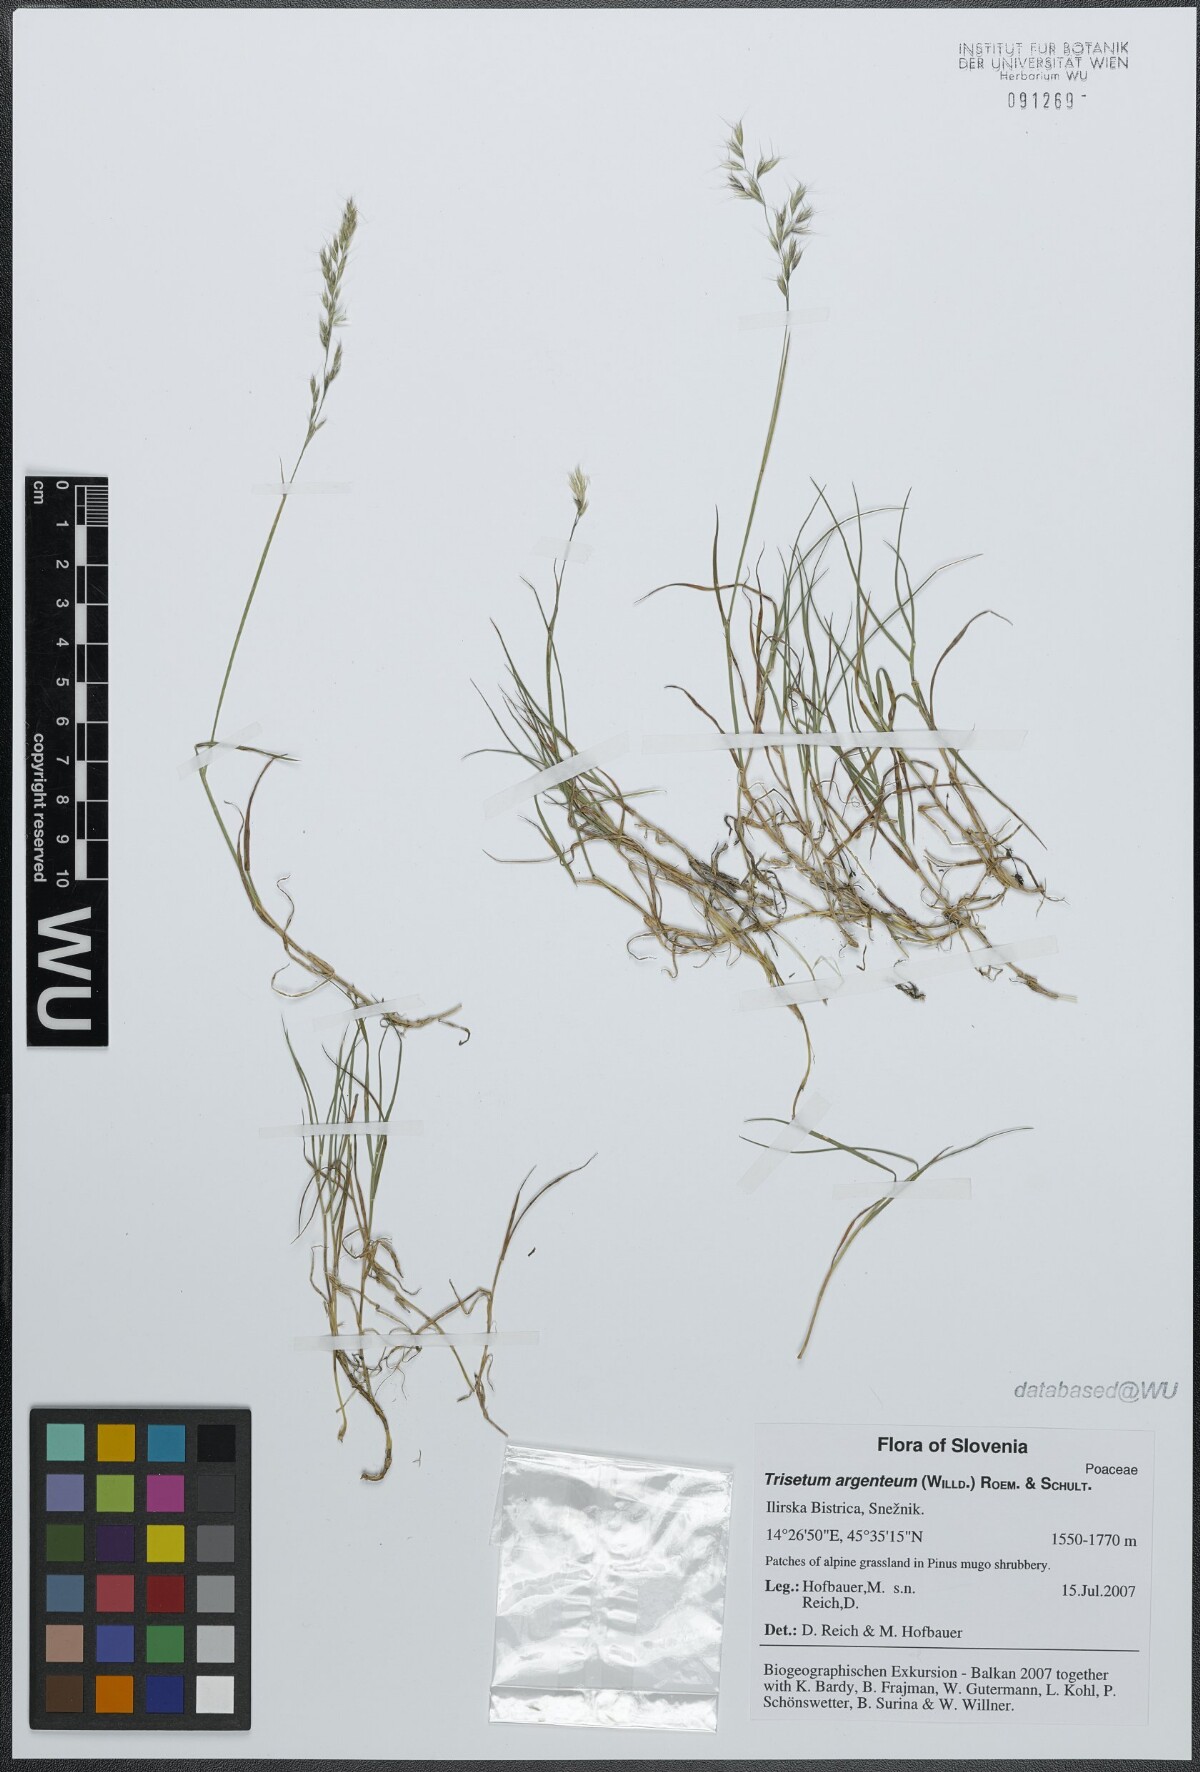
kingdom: Plantae
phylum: Tracheophyta
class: Liliopsida
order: Poales
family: Poaceae
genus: Trisetum
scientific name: Trisetum argenteum
